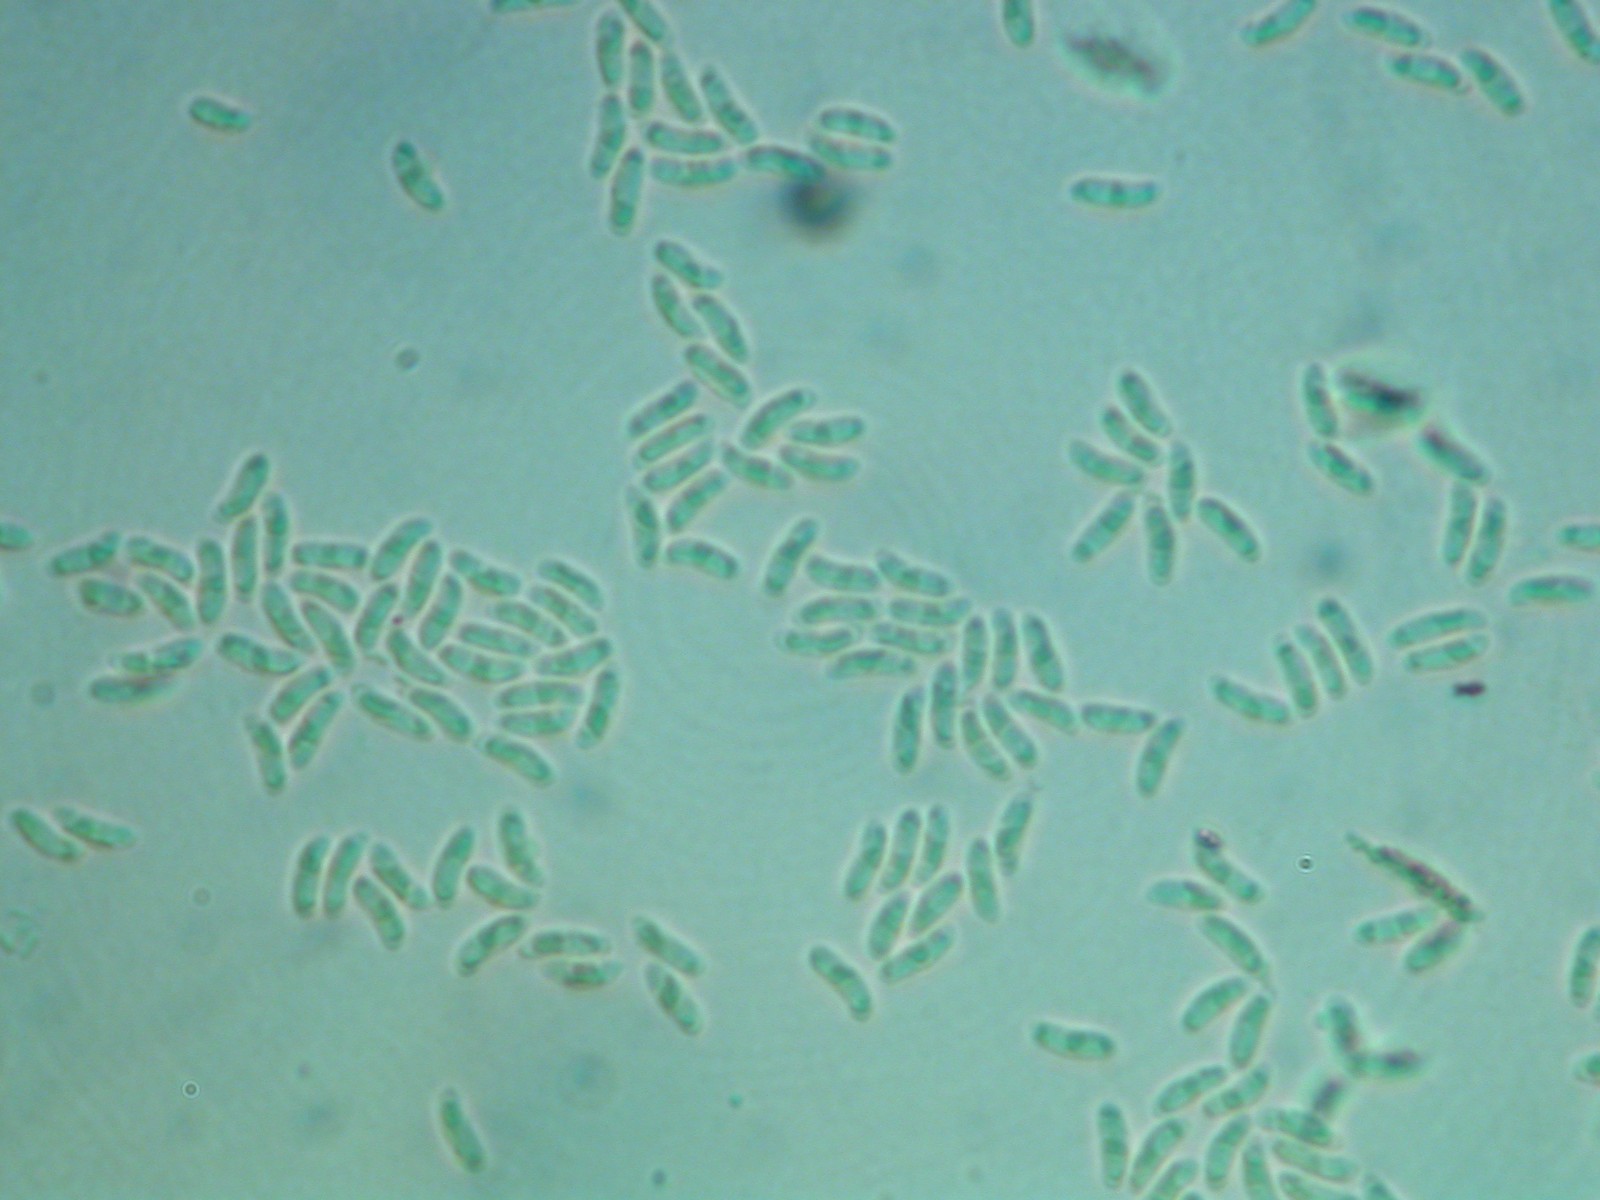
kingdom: Fungi
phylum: Basidiomycota
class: Agaricomycetes
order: Polyporales
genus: Fuscopostia
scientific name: Fuscopostia leucomallella
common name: gulbrun kødporesvamp
